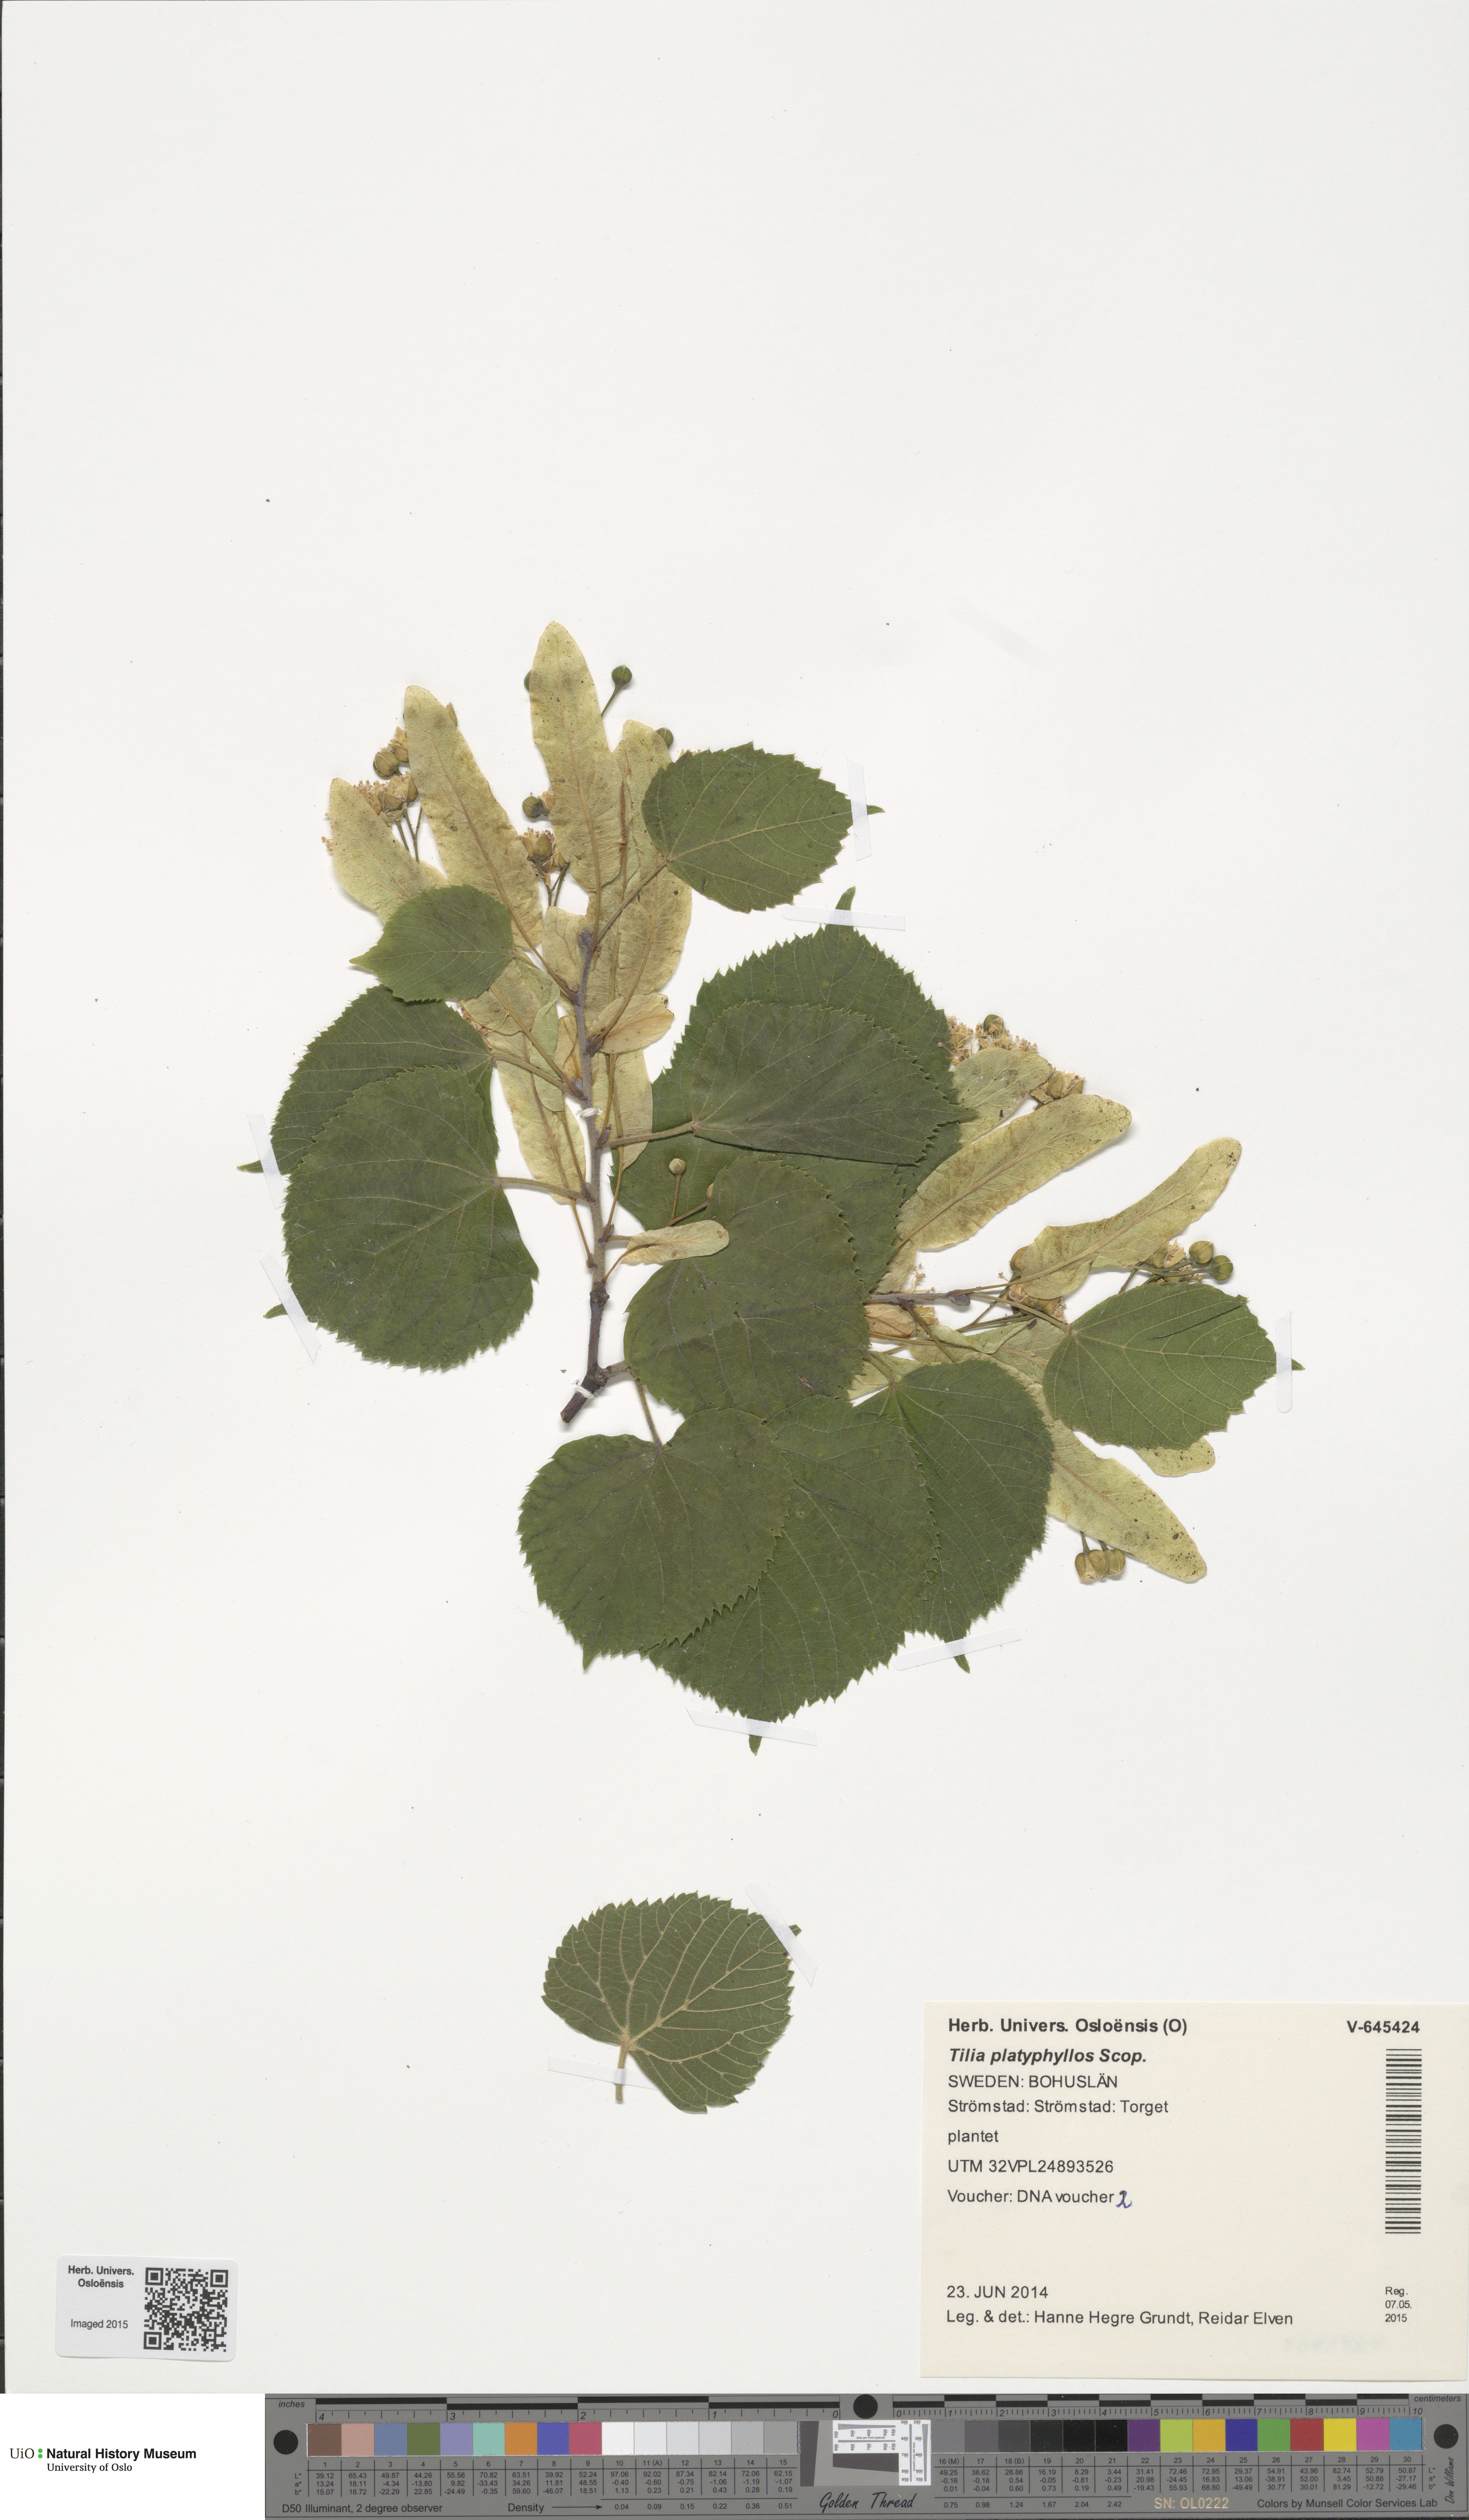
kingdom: Plantae
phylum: Tracheophyta
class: Magnoliopsida
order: Malvales
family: Malvaceae
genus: Tilia
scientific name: Tilia platyphyllos
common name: Large-leaved lime
